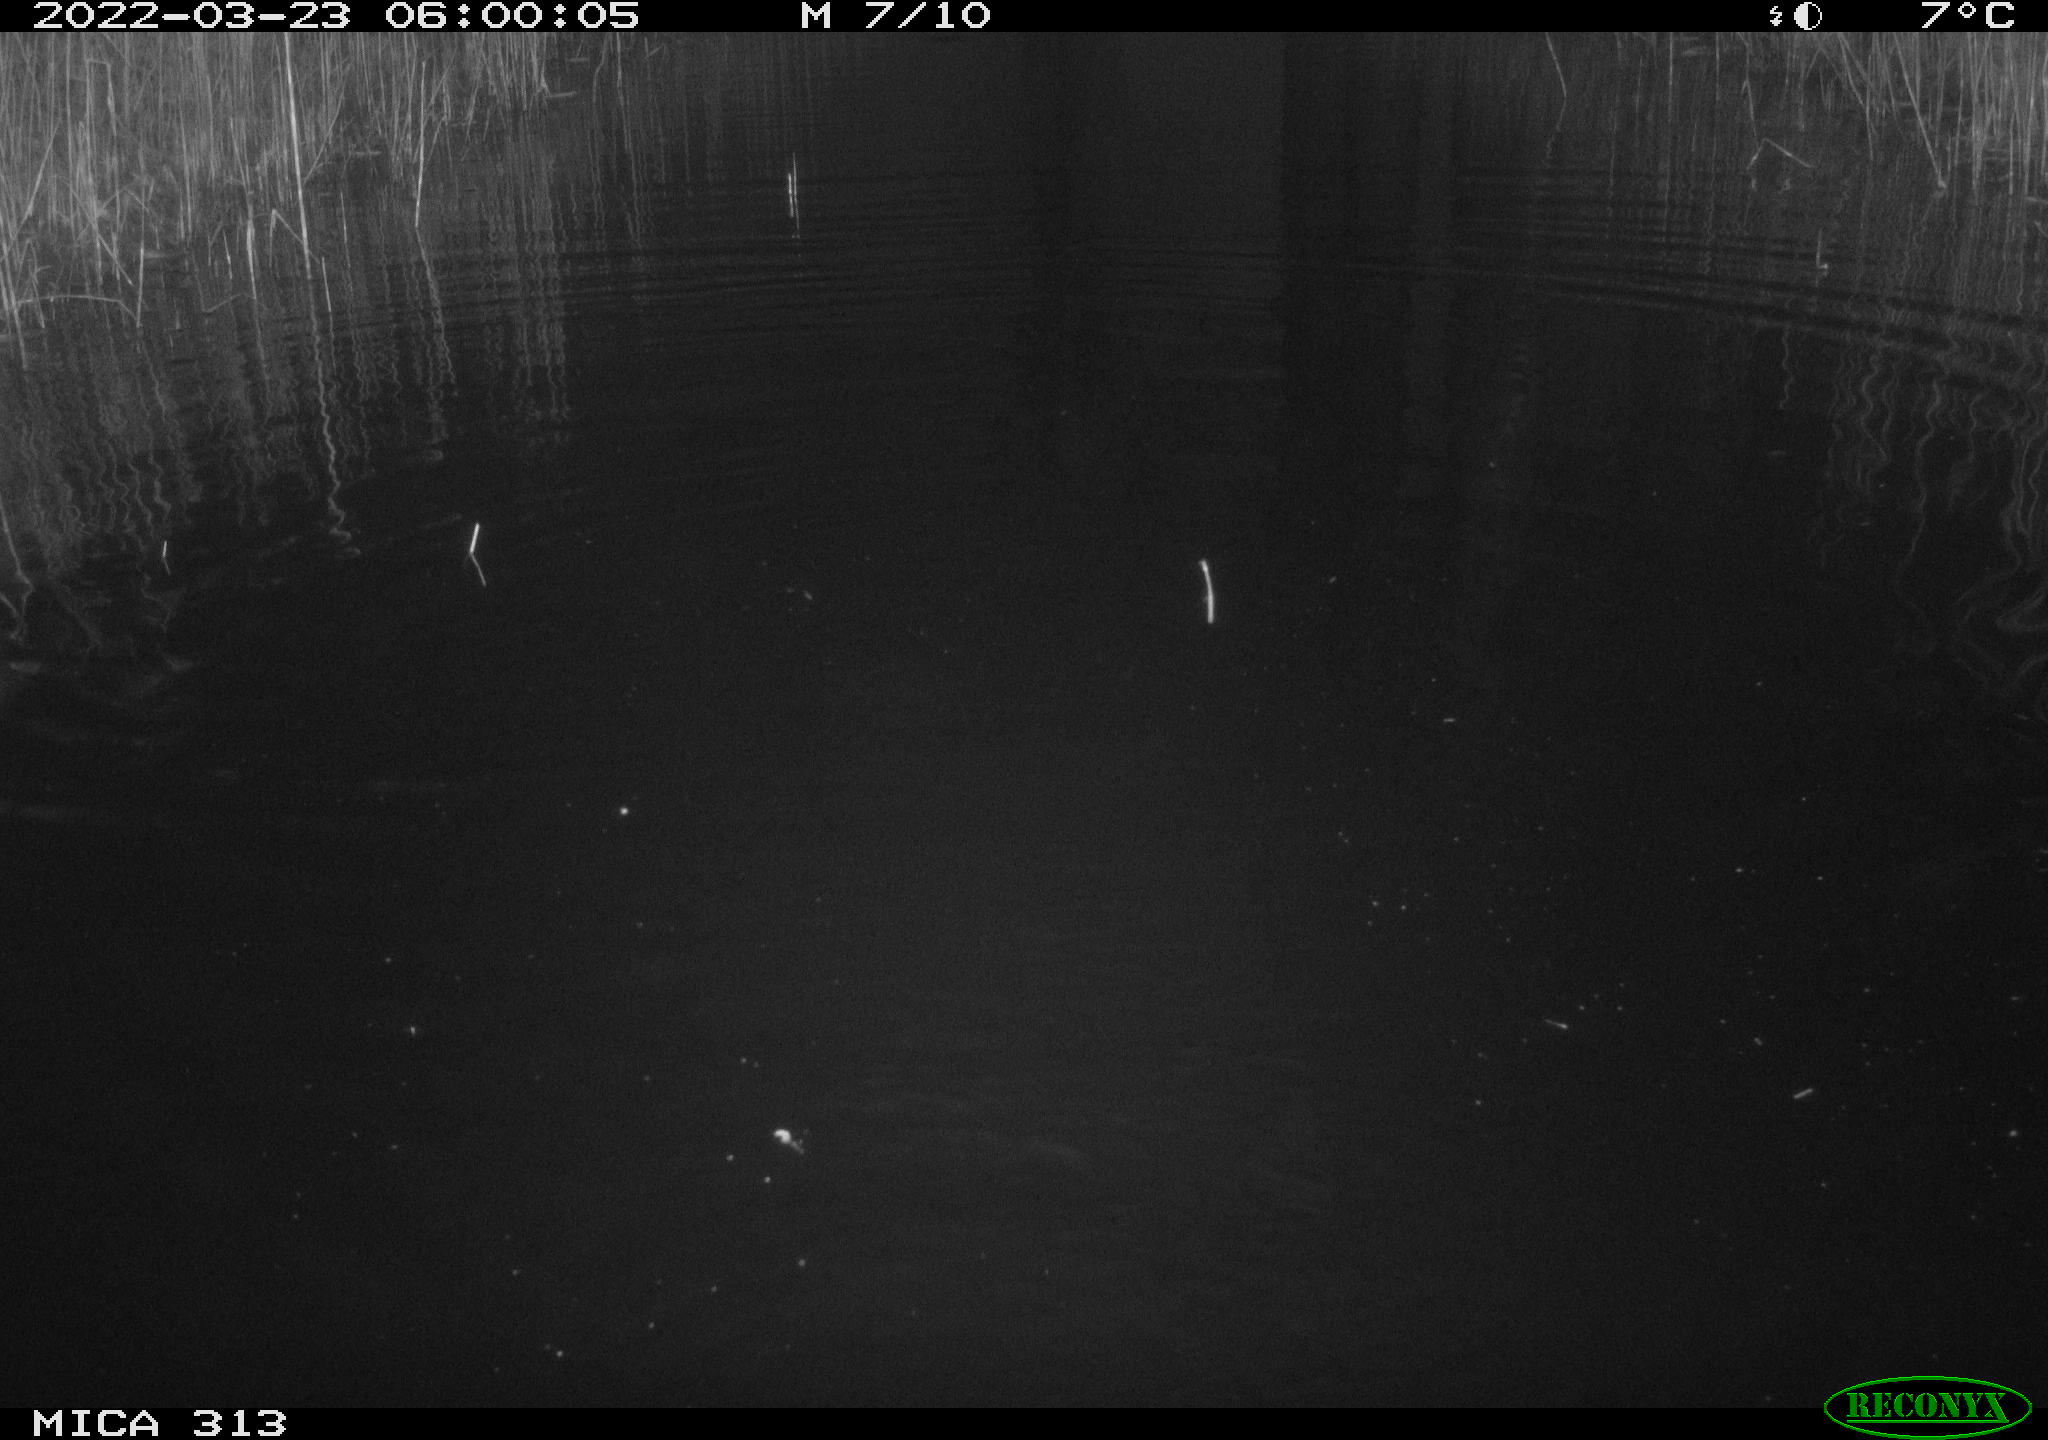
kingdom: Animalia
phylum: Chordata
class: Aves
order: Anseriformes
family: Anatidae
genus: Anas
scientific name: Anas platyrhynchos
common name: Mallard
